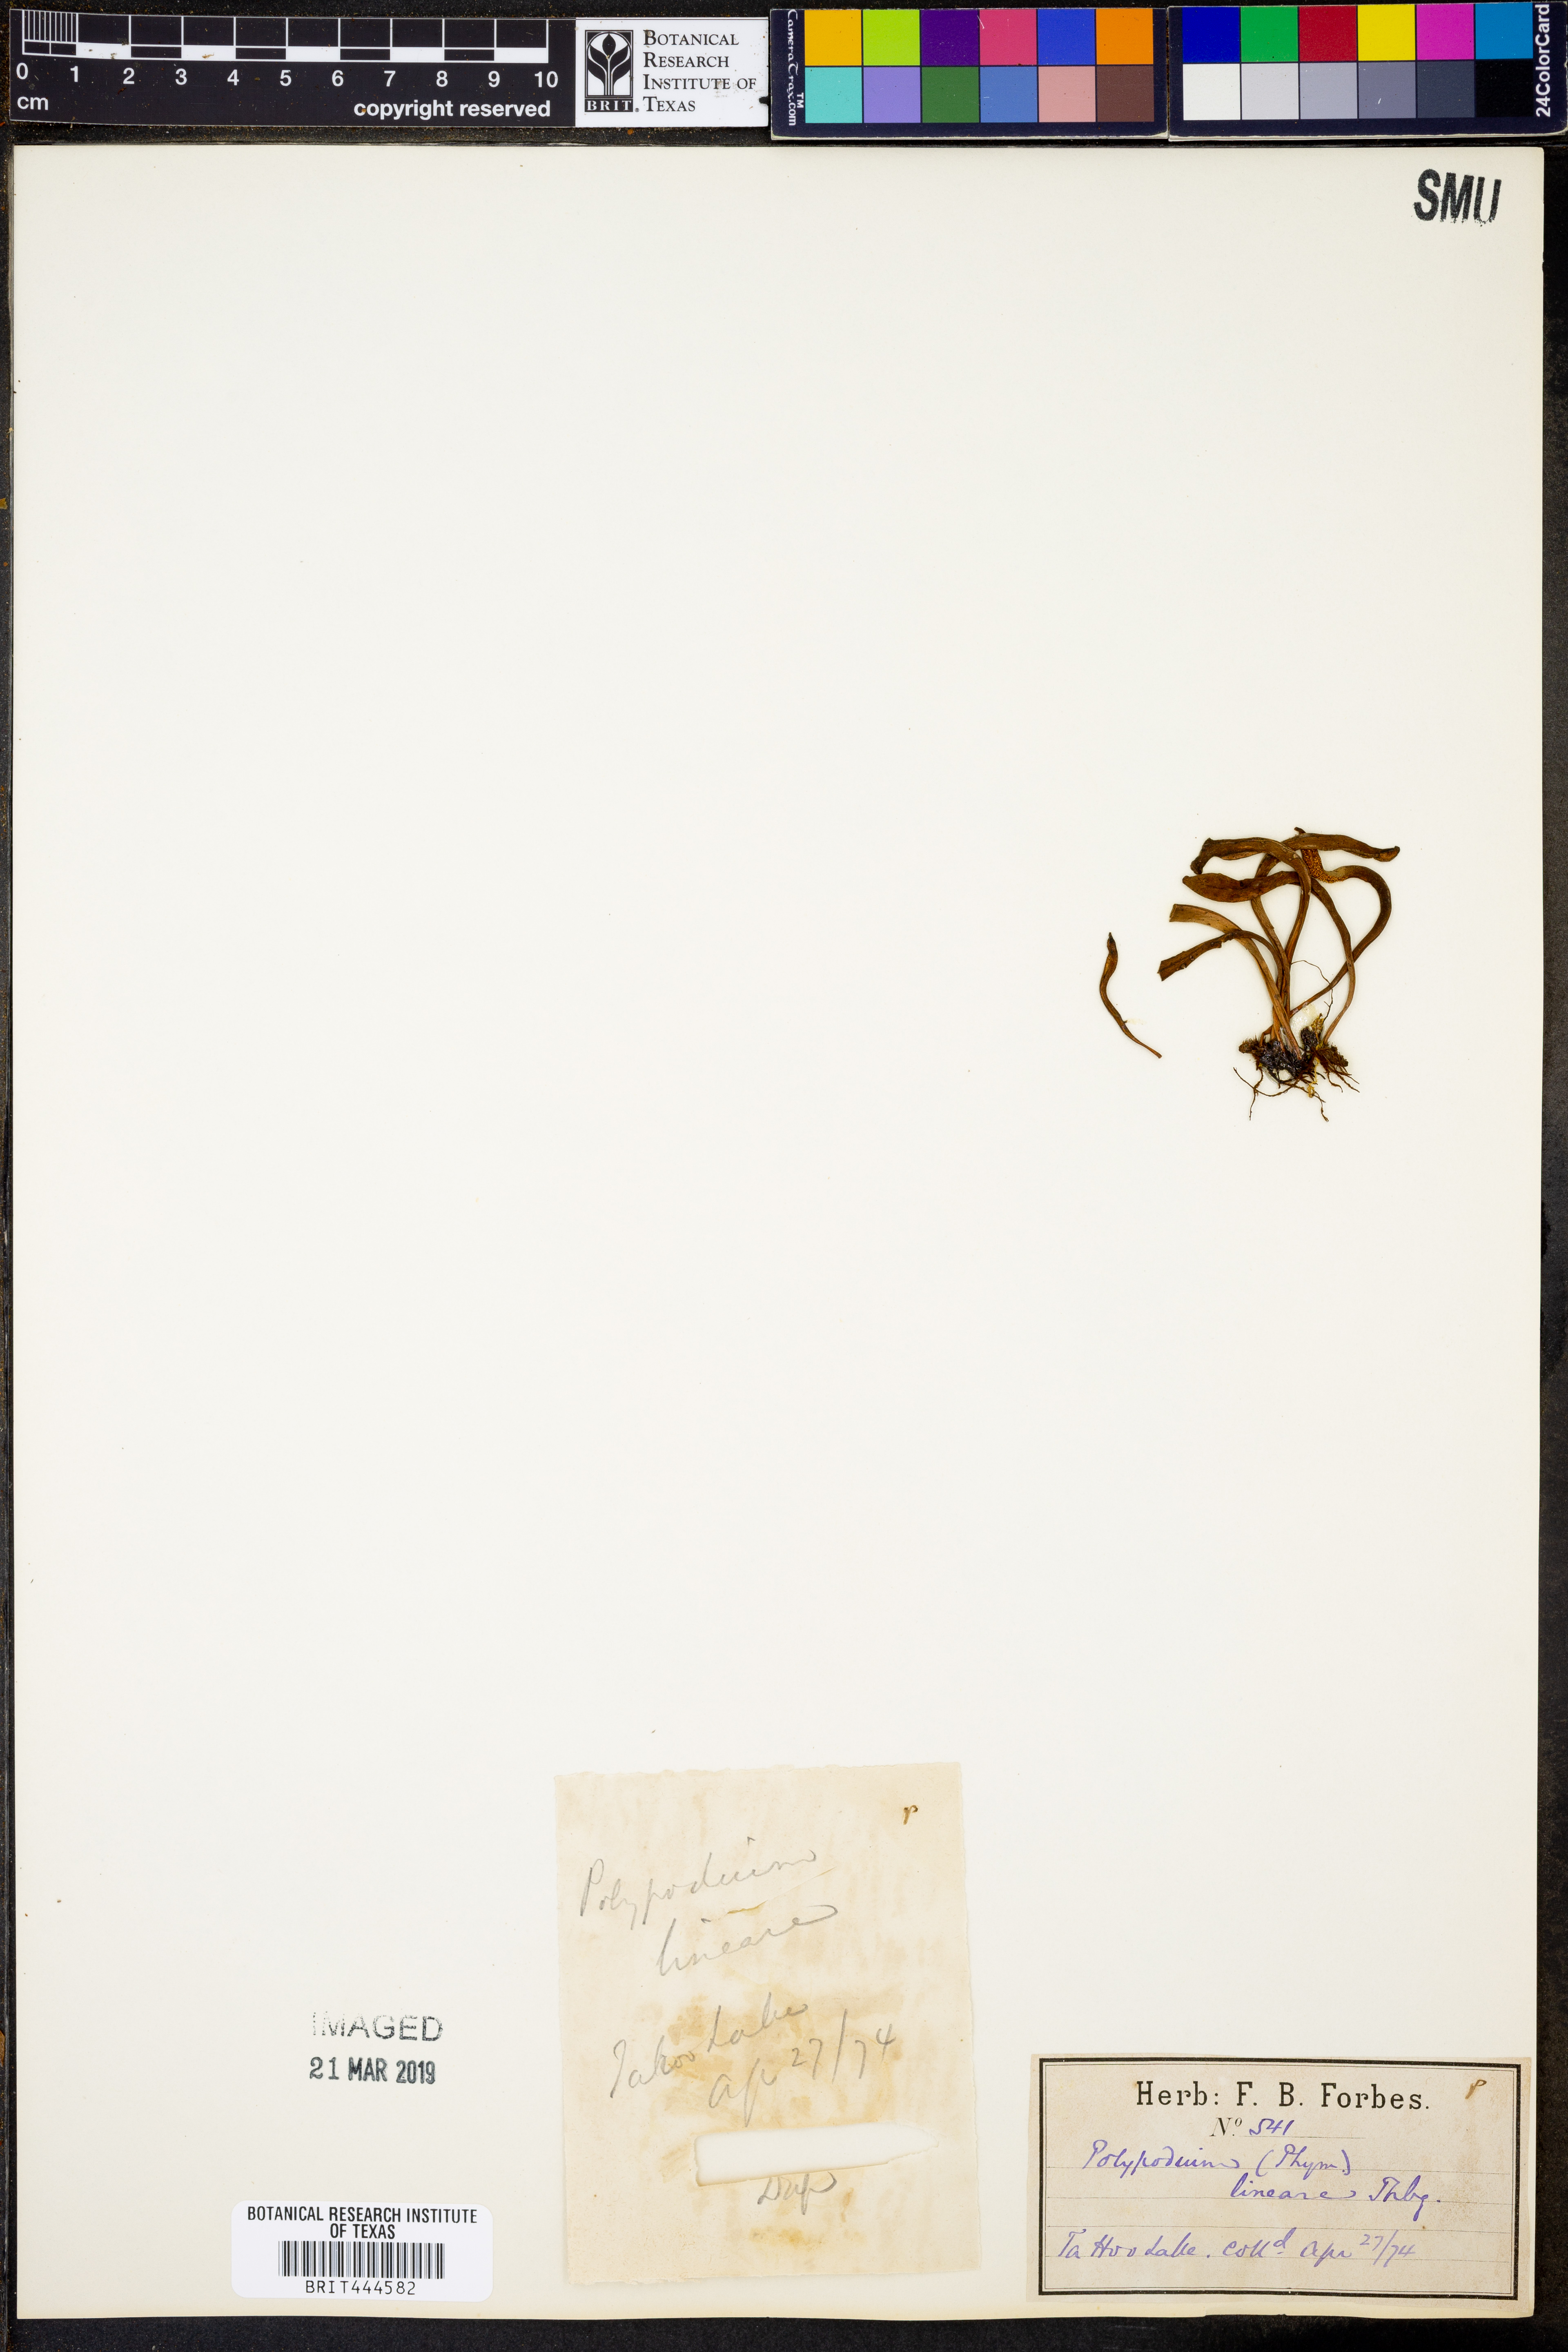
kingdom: Plantae
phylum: Tracheophyta
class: Polypodiopsida
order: Polypodiales
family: Polypodiaceae
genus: Lepisorus
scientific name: Lepisorus thunbergianus
